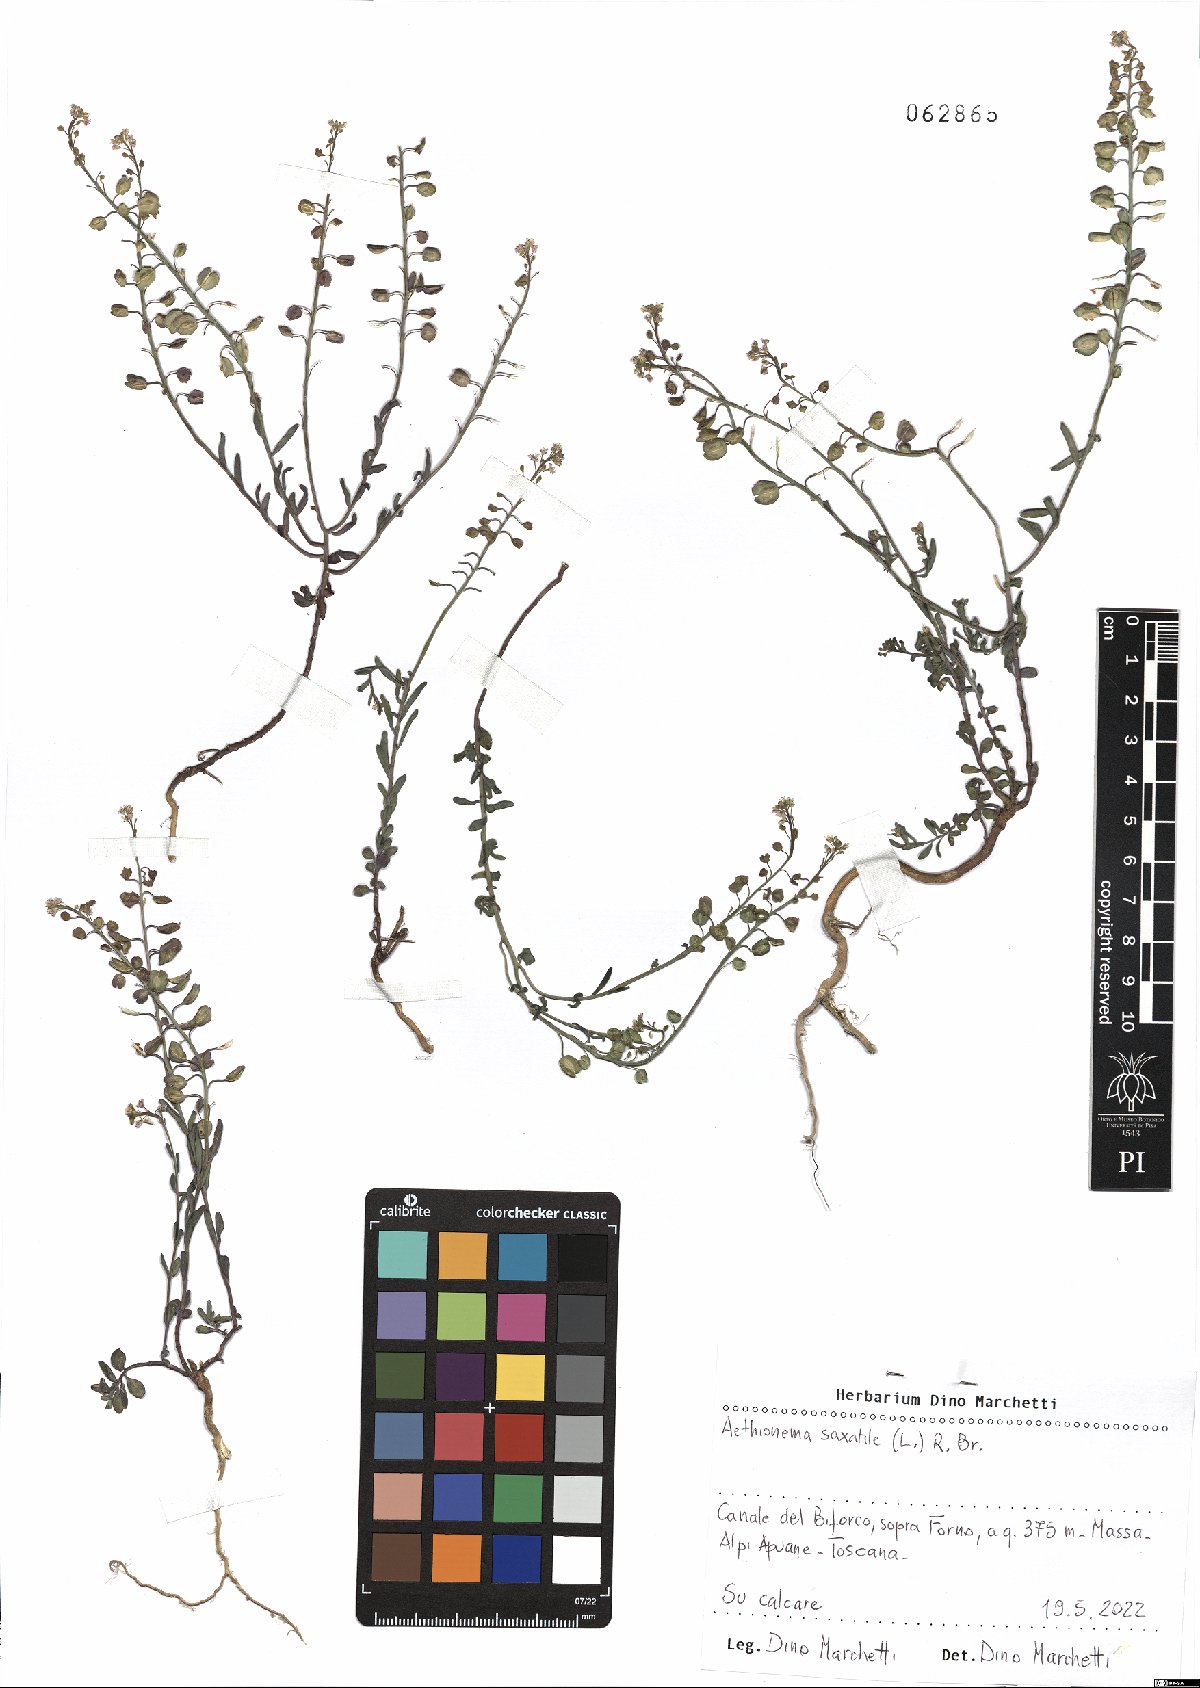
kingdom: Plantae
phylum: Tracheophyta
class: Magnoliopsida
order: Brassicales
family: Brassicaceae
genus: Aethionema
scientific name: Aethionema saxatile
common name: Burnt candytuft
